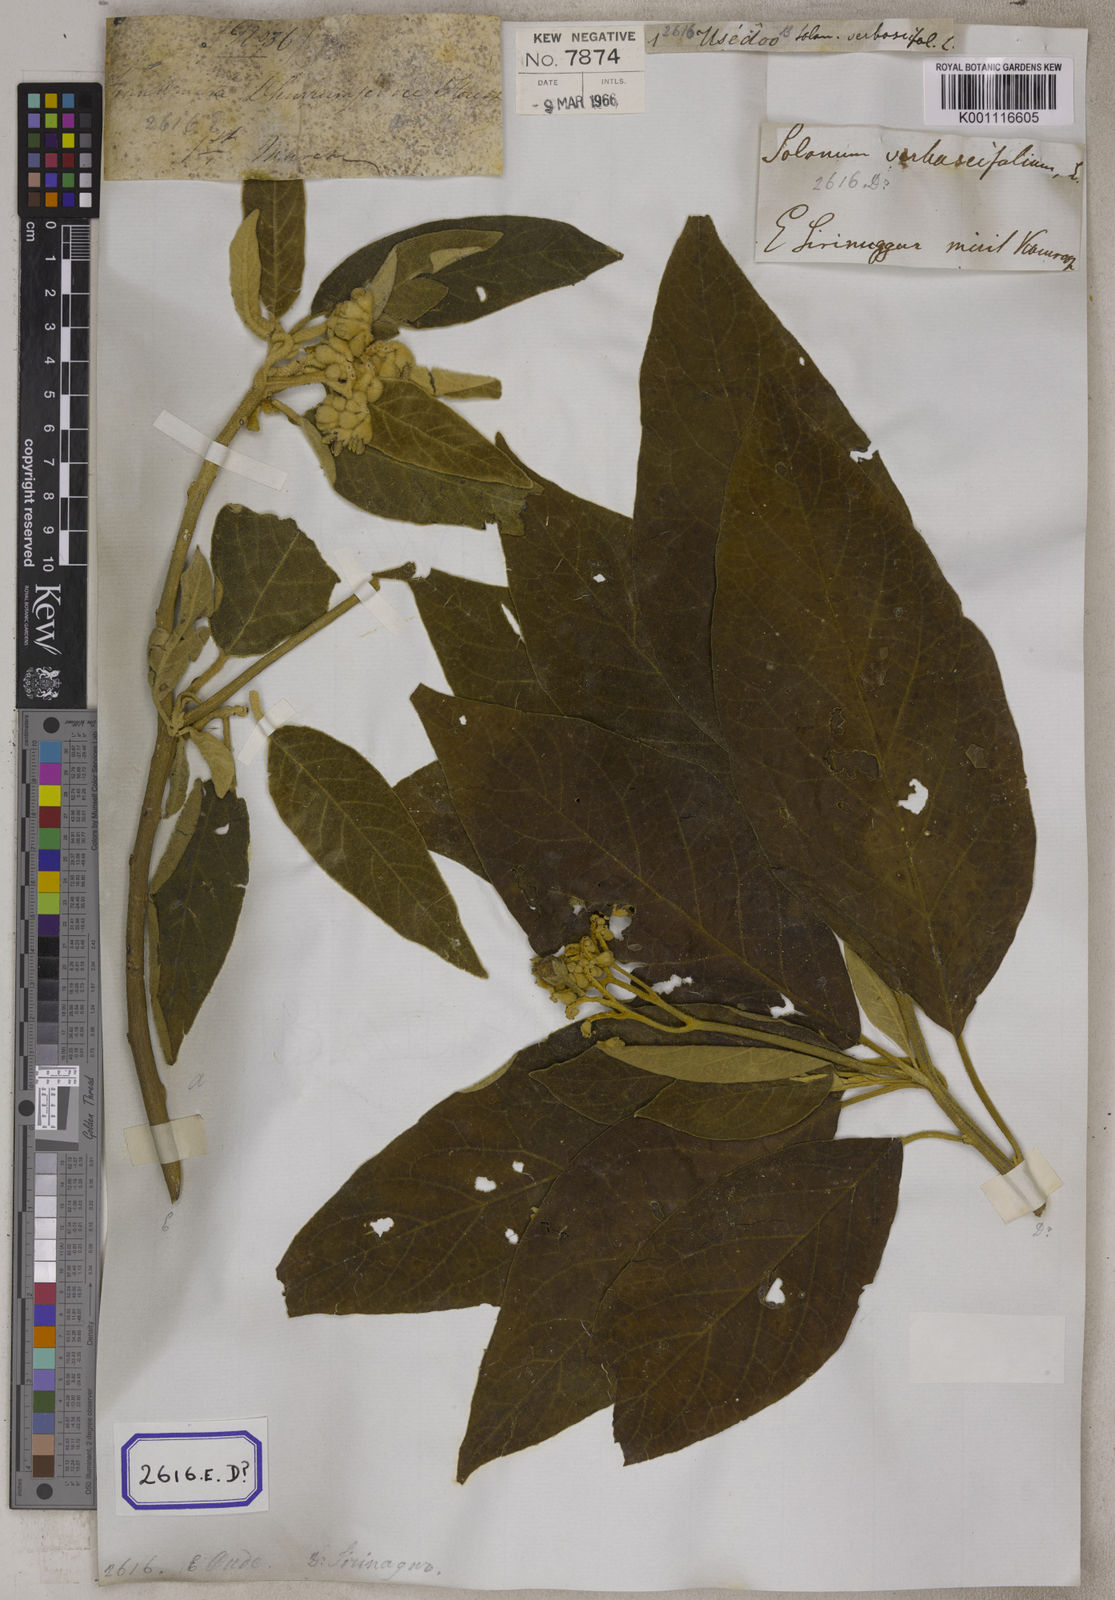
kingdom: Plantae
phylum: Tracheophyta
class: Magnoliopsida
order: Solanales
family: Solanaceae
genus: Solanum
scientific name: Solanum donianum
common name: Mullein nightshade
